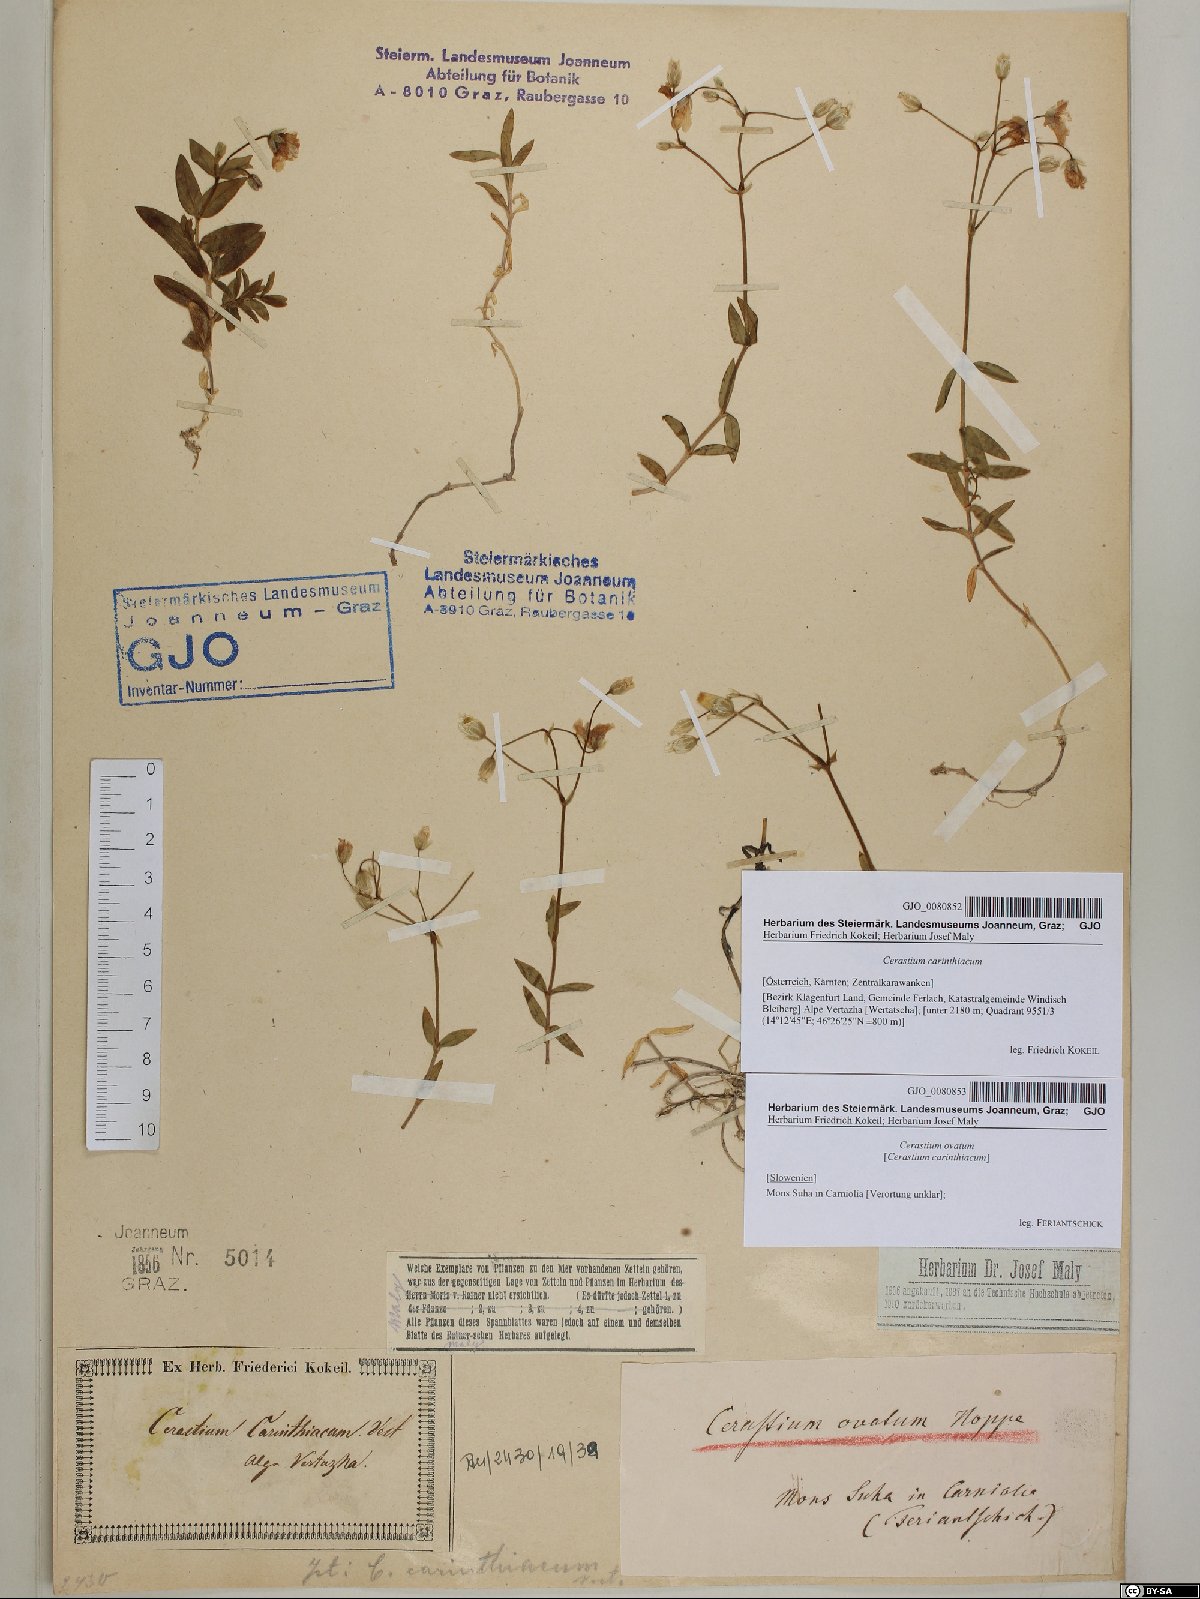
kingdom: Plantae
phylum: Tracheophyta
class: Magnoliopsida
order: Caryophyllales
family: Caryophyllaceae
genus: Cerastium
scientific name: Cerastium arvense
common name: Field mouse-ear
